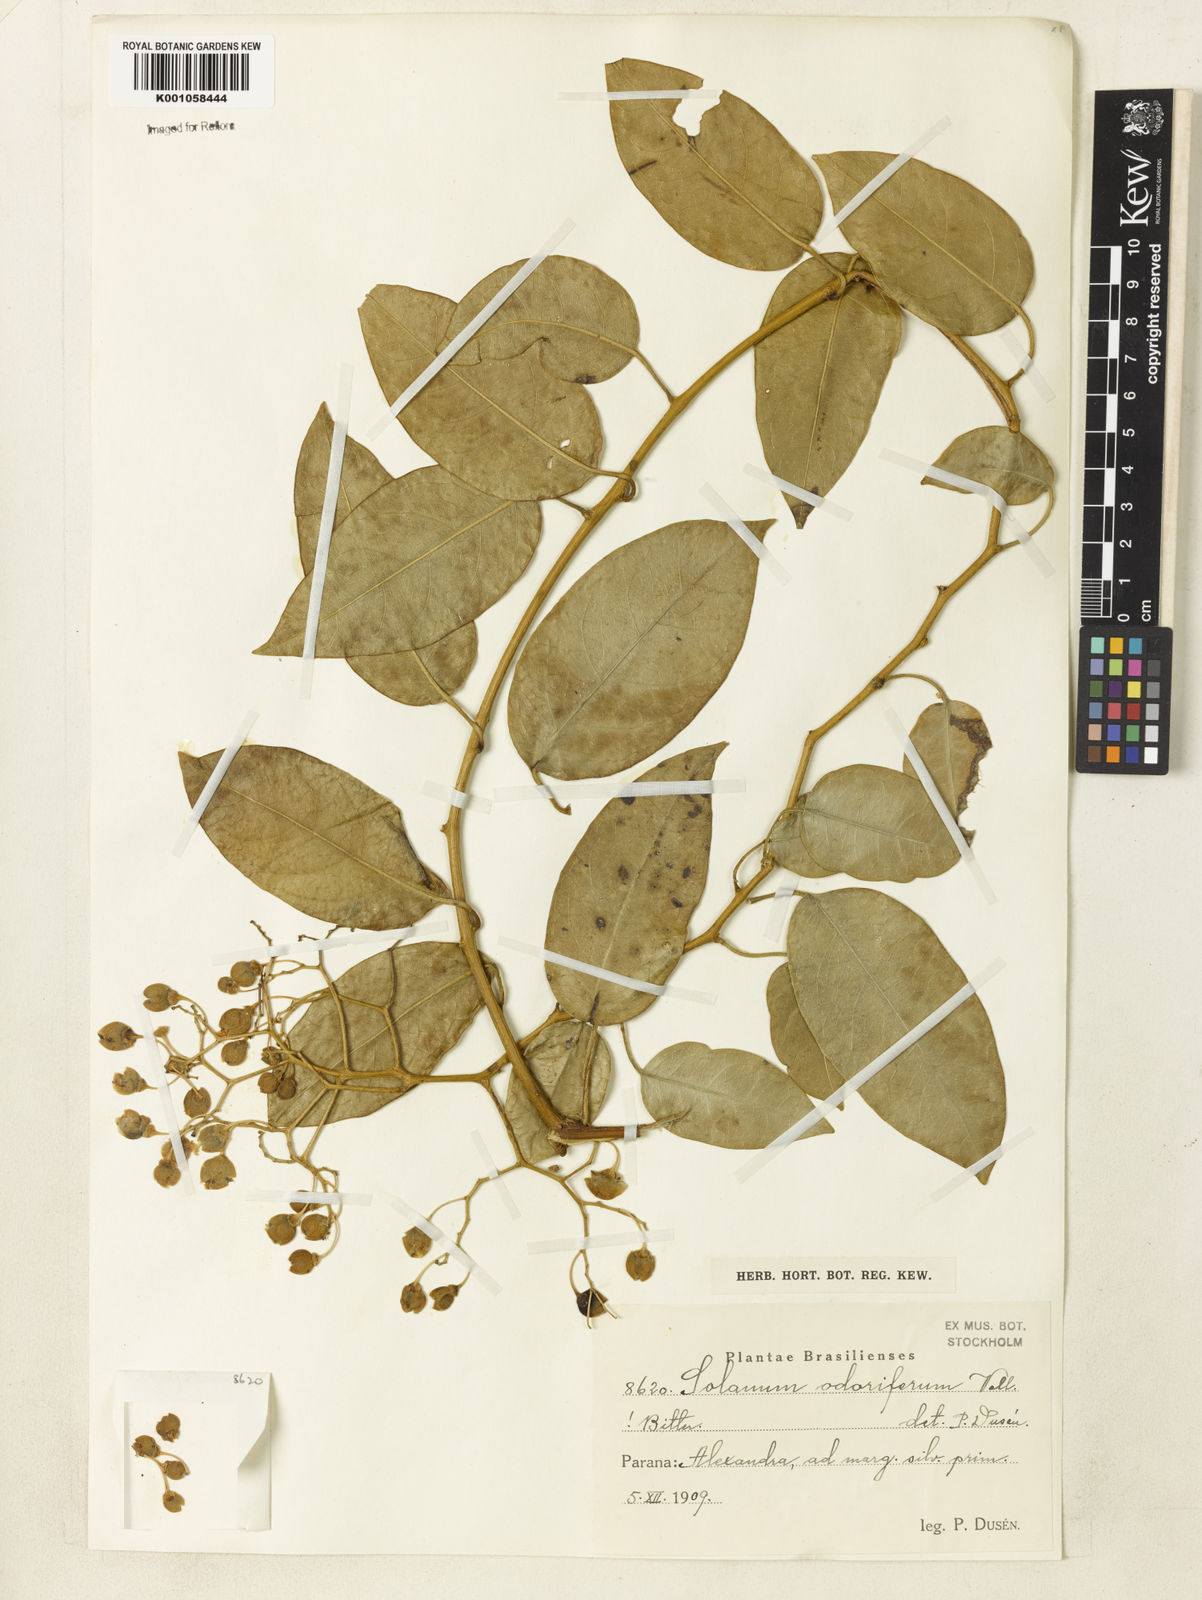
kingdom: Plantae
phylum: Tracheophyta
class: Magnoliopsida
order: Solanales
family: Solanaceae
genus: Solanum
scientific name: Solanum odoriferum
